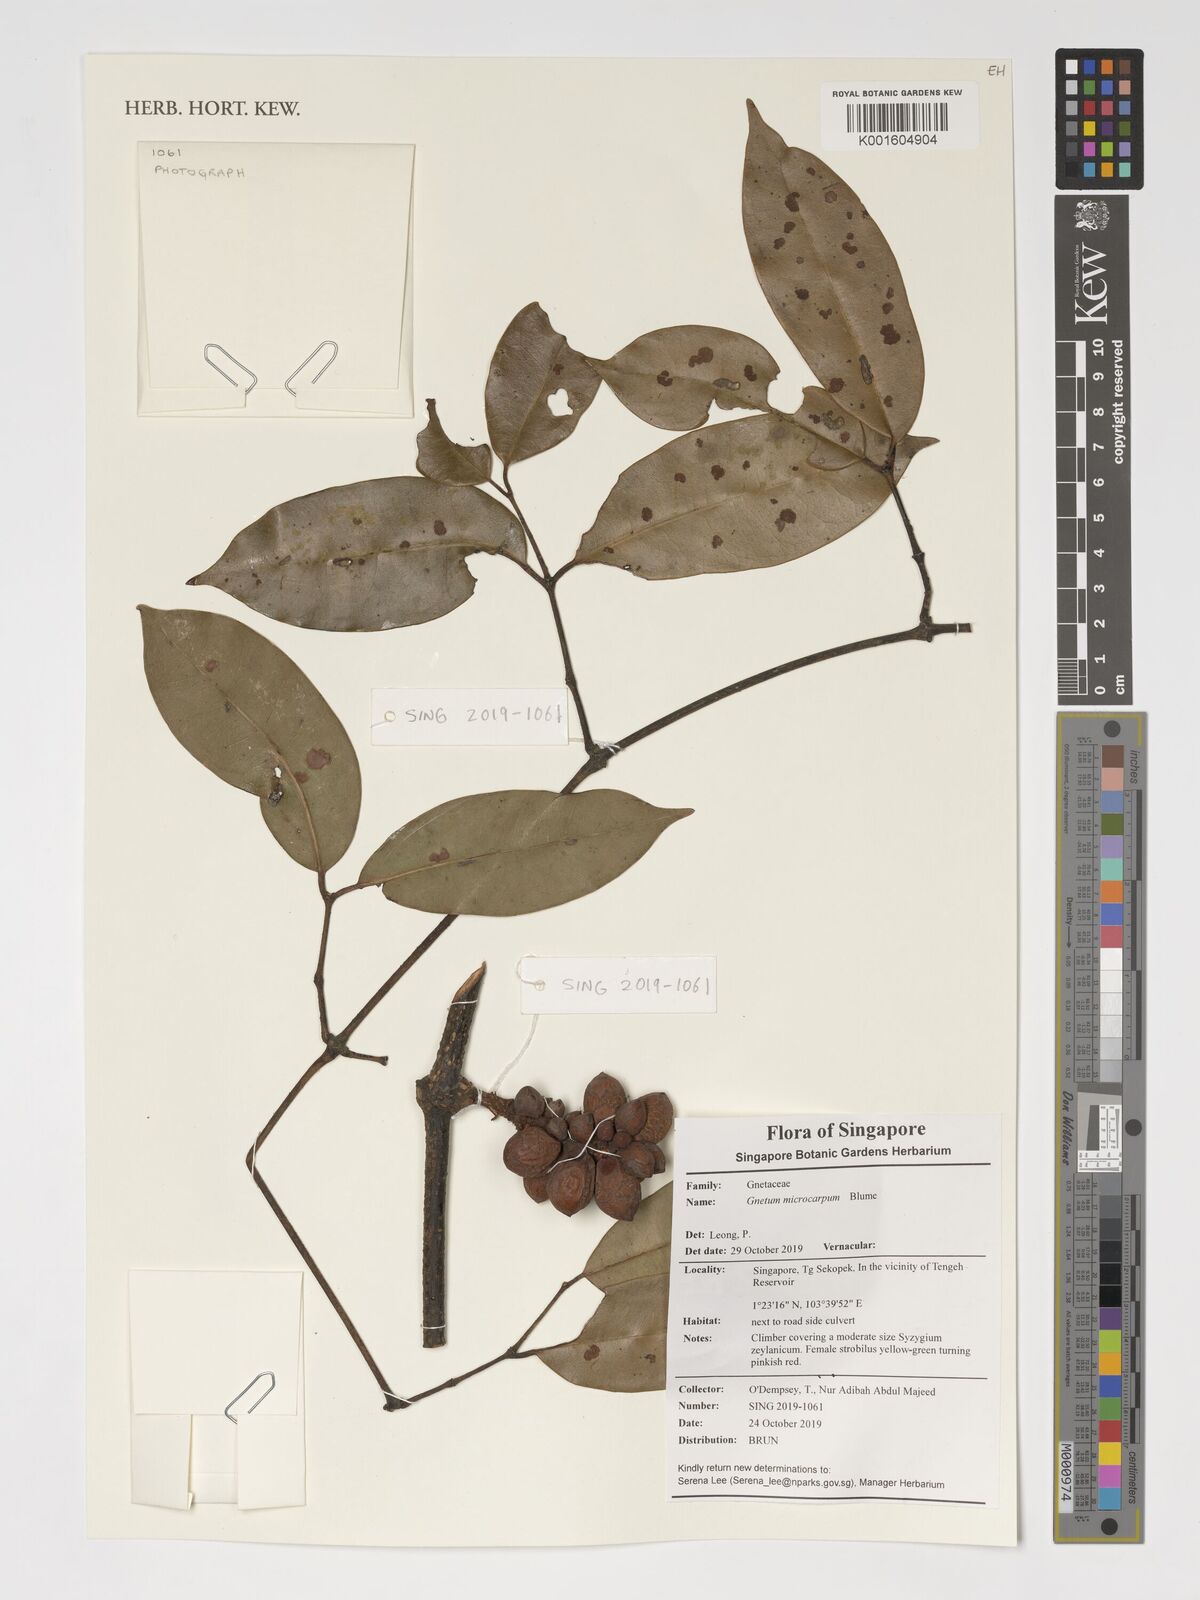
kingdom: Plantae
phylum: Tracheophyta
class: Gnetopsida
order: Gnetales
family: Gnetaceae
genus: Gnetum
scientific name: Gnetum microcarpum
